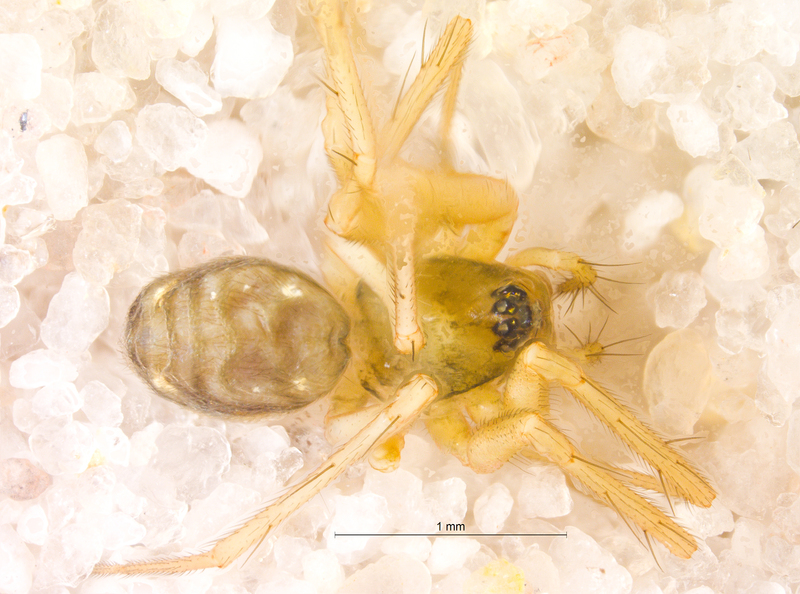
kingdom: Animalia
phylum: Arthropoda
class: Arachnida
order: Araneae
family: Linyphiidae
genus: Tenuiphantes
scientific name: Tenuiphantes flavipes
